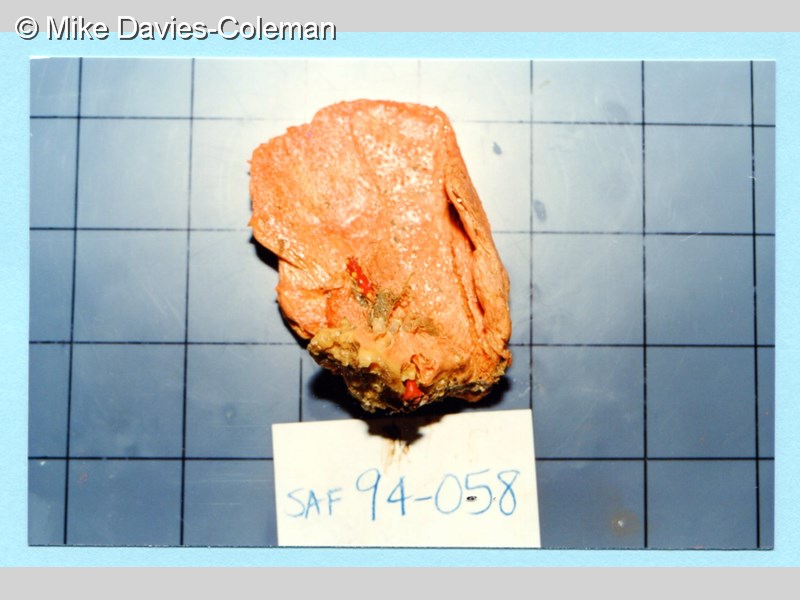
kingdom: Animalia
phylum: Porifera
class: Demospongiae
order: Poecilosclerida
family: Crellidae
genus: Crella
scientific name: Crella erecta
